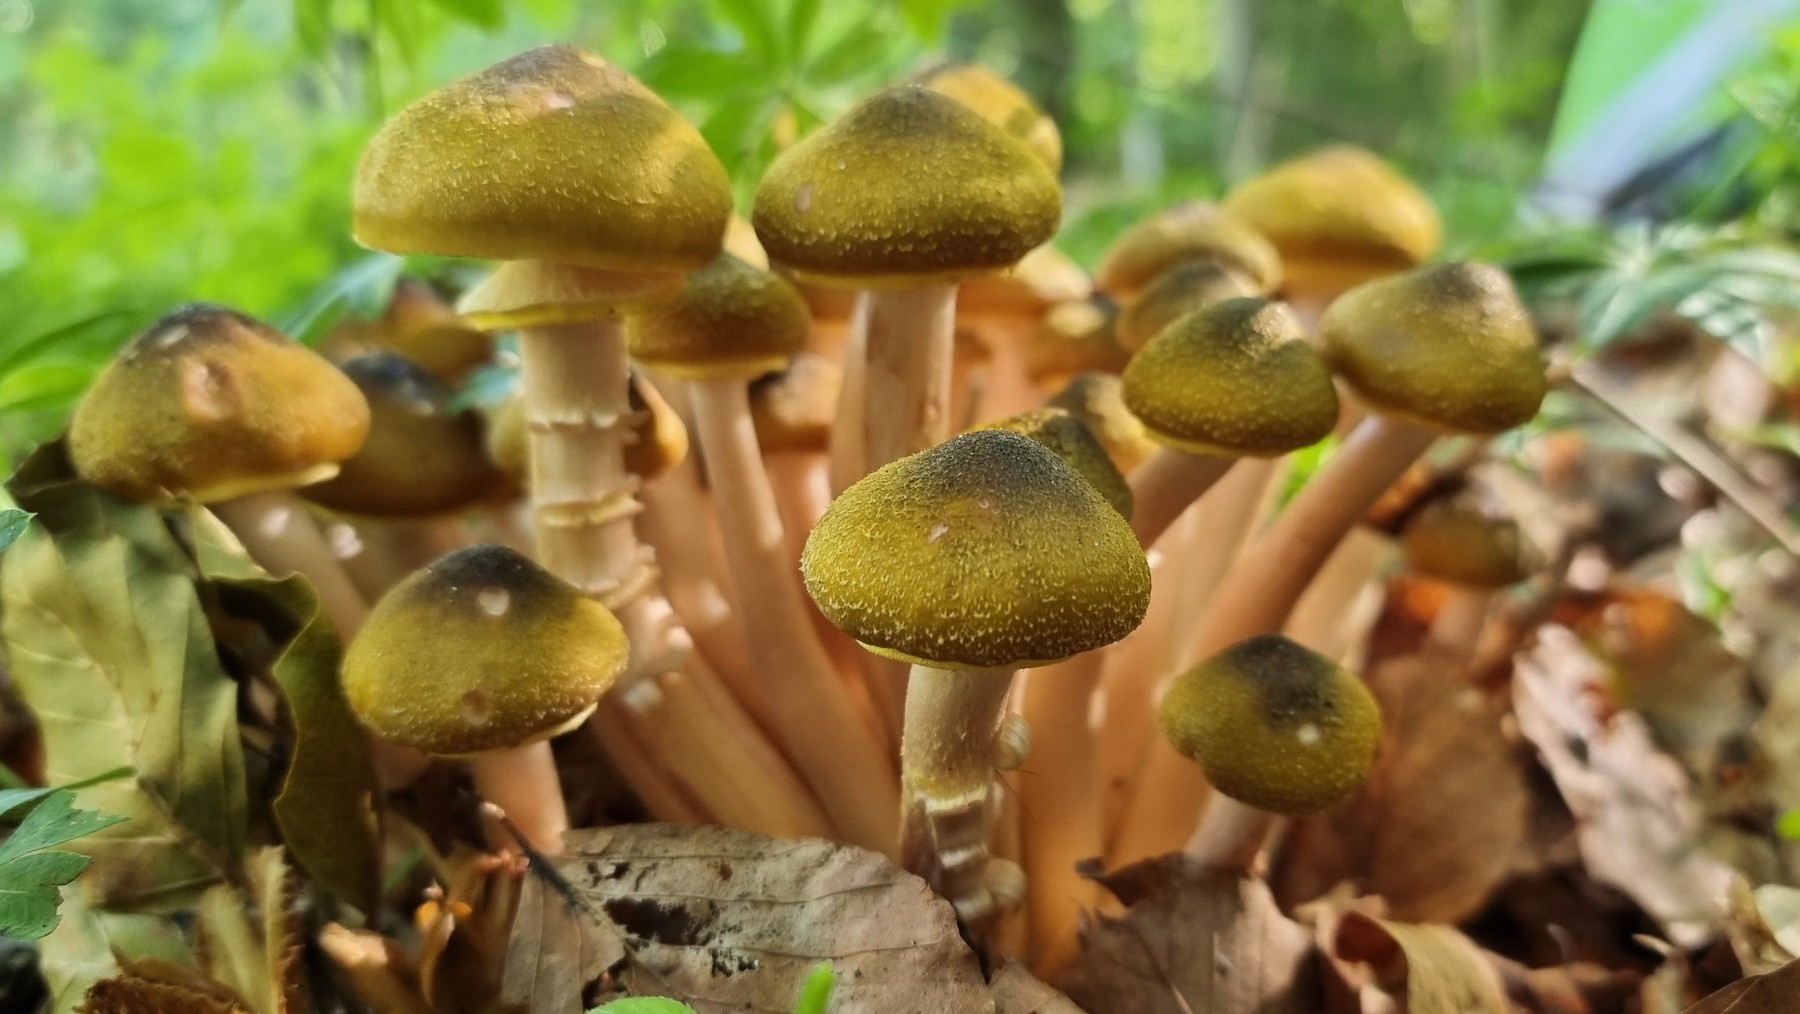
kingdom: Fungi
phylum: Basidiomycota
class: Agaricomycetes
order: Agaricales
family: Physalacriaceae
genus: Armillaria
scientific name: Armillaria mellea
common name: ægte honningsvamp
